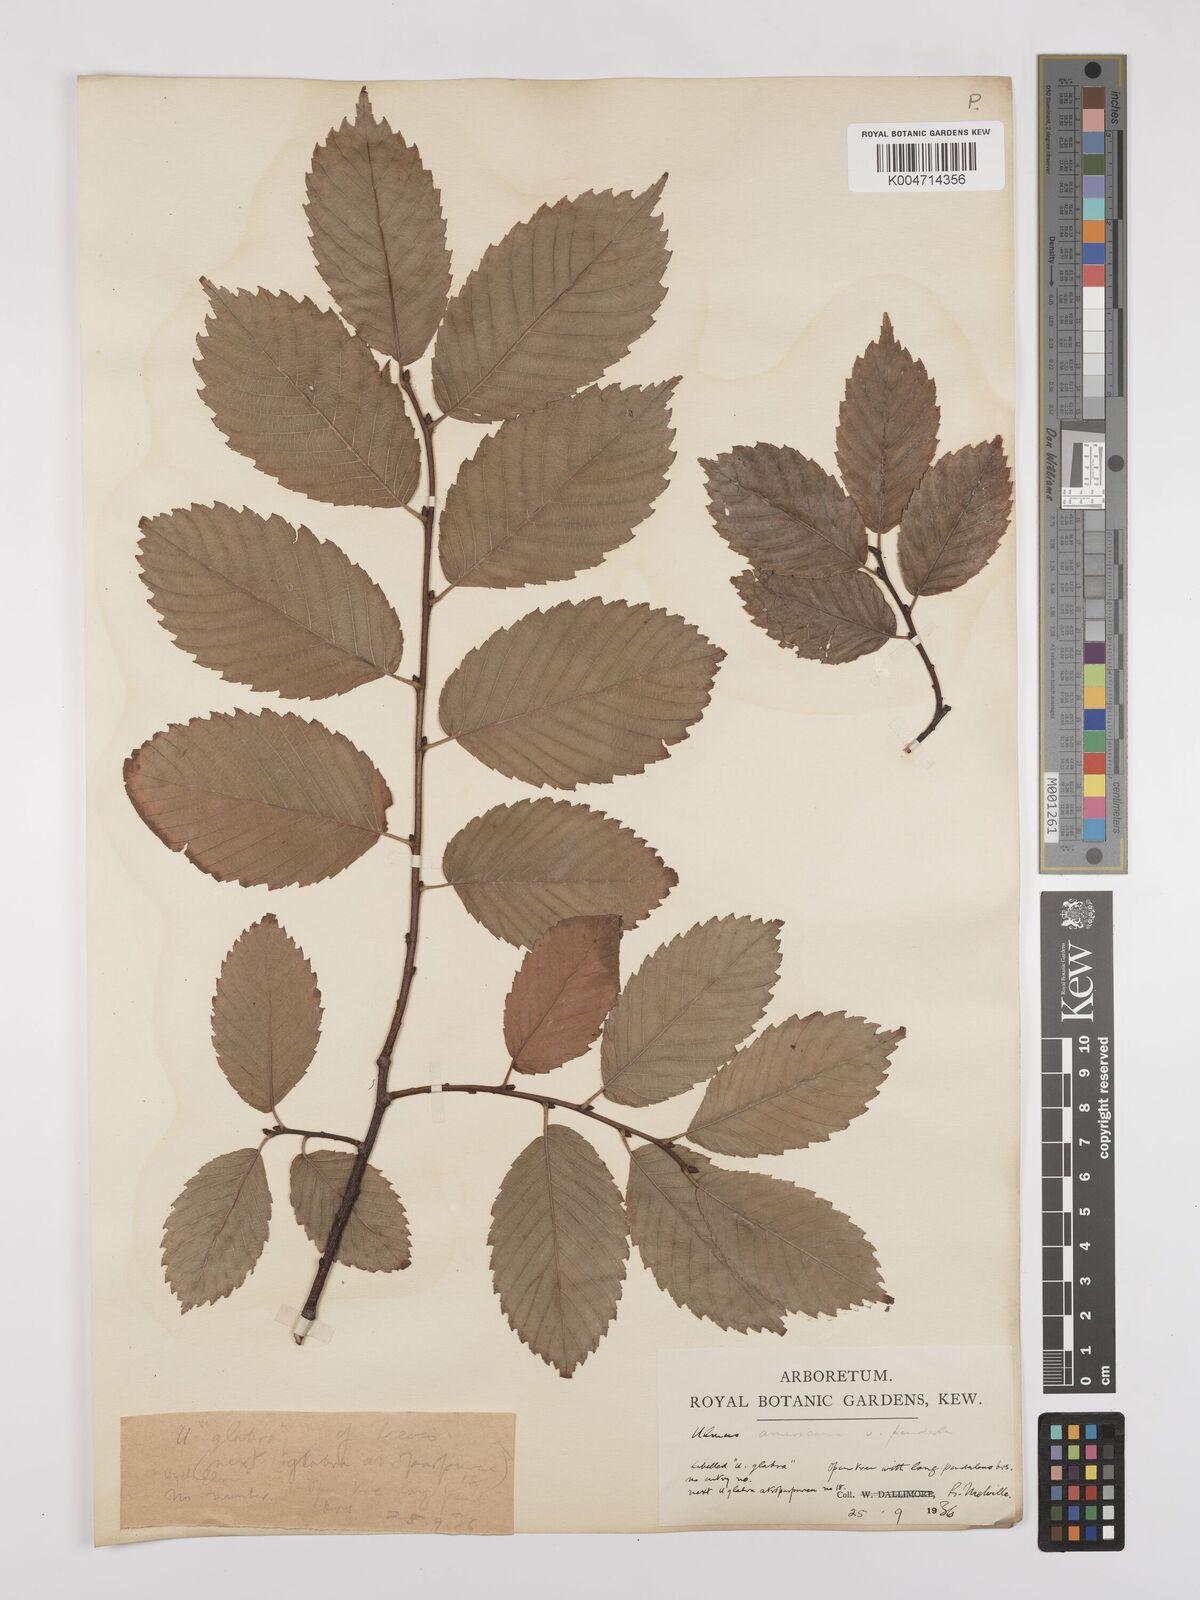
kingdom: Plantae
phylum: Tracheophyta
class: Magnoliopsida
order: Rosales
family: Ulmaceae
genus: Ulmus
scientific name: Ulmus americana
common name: American elm
